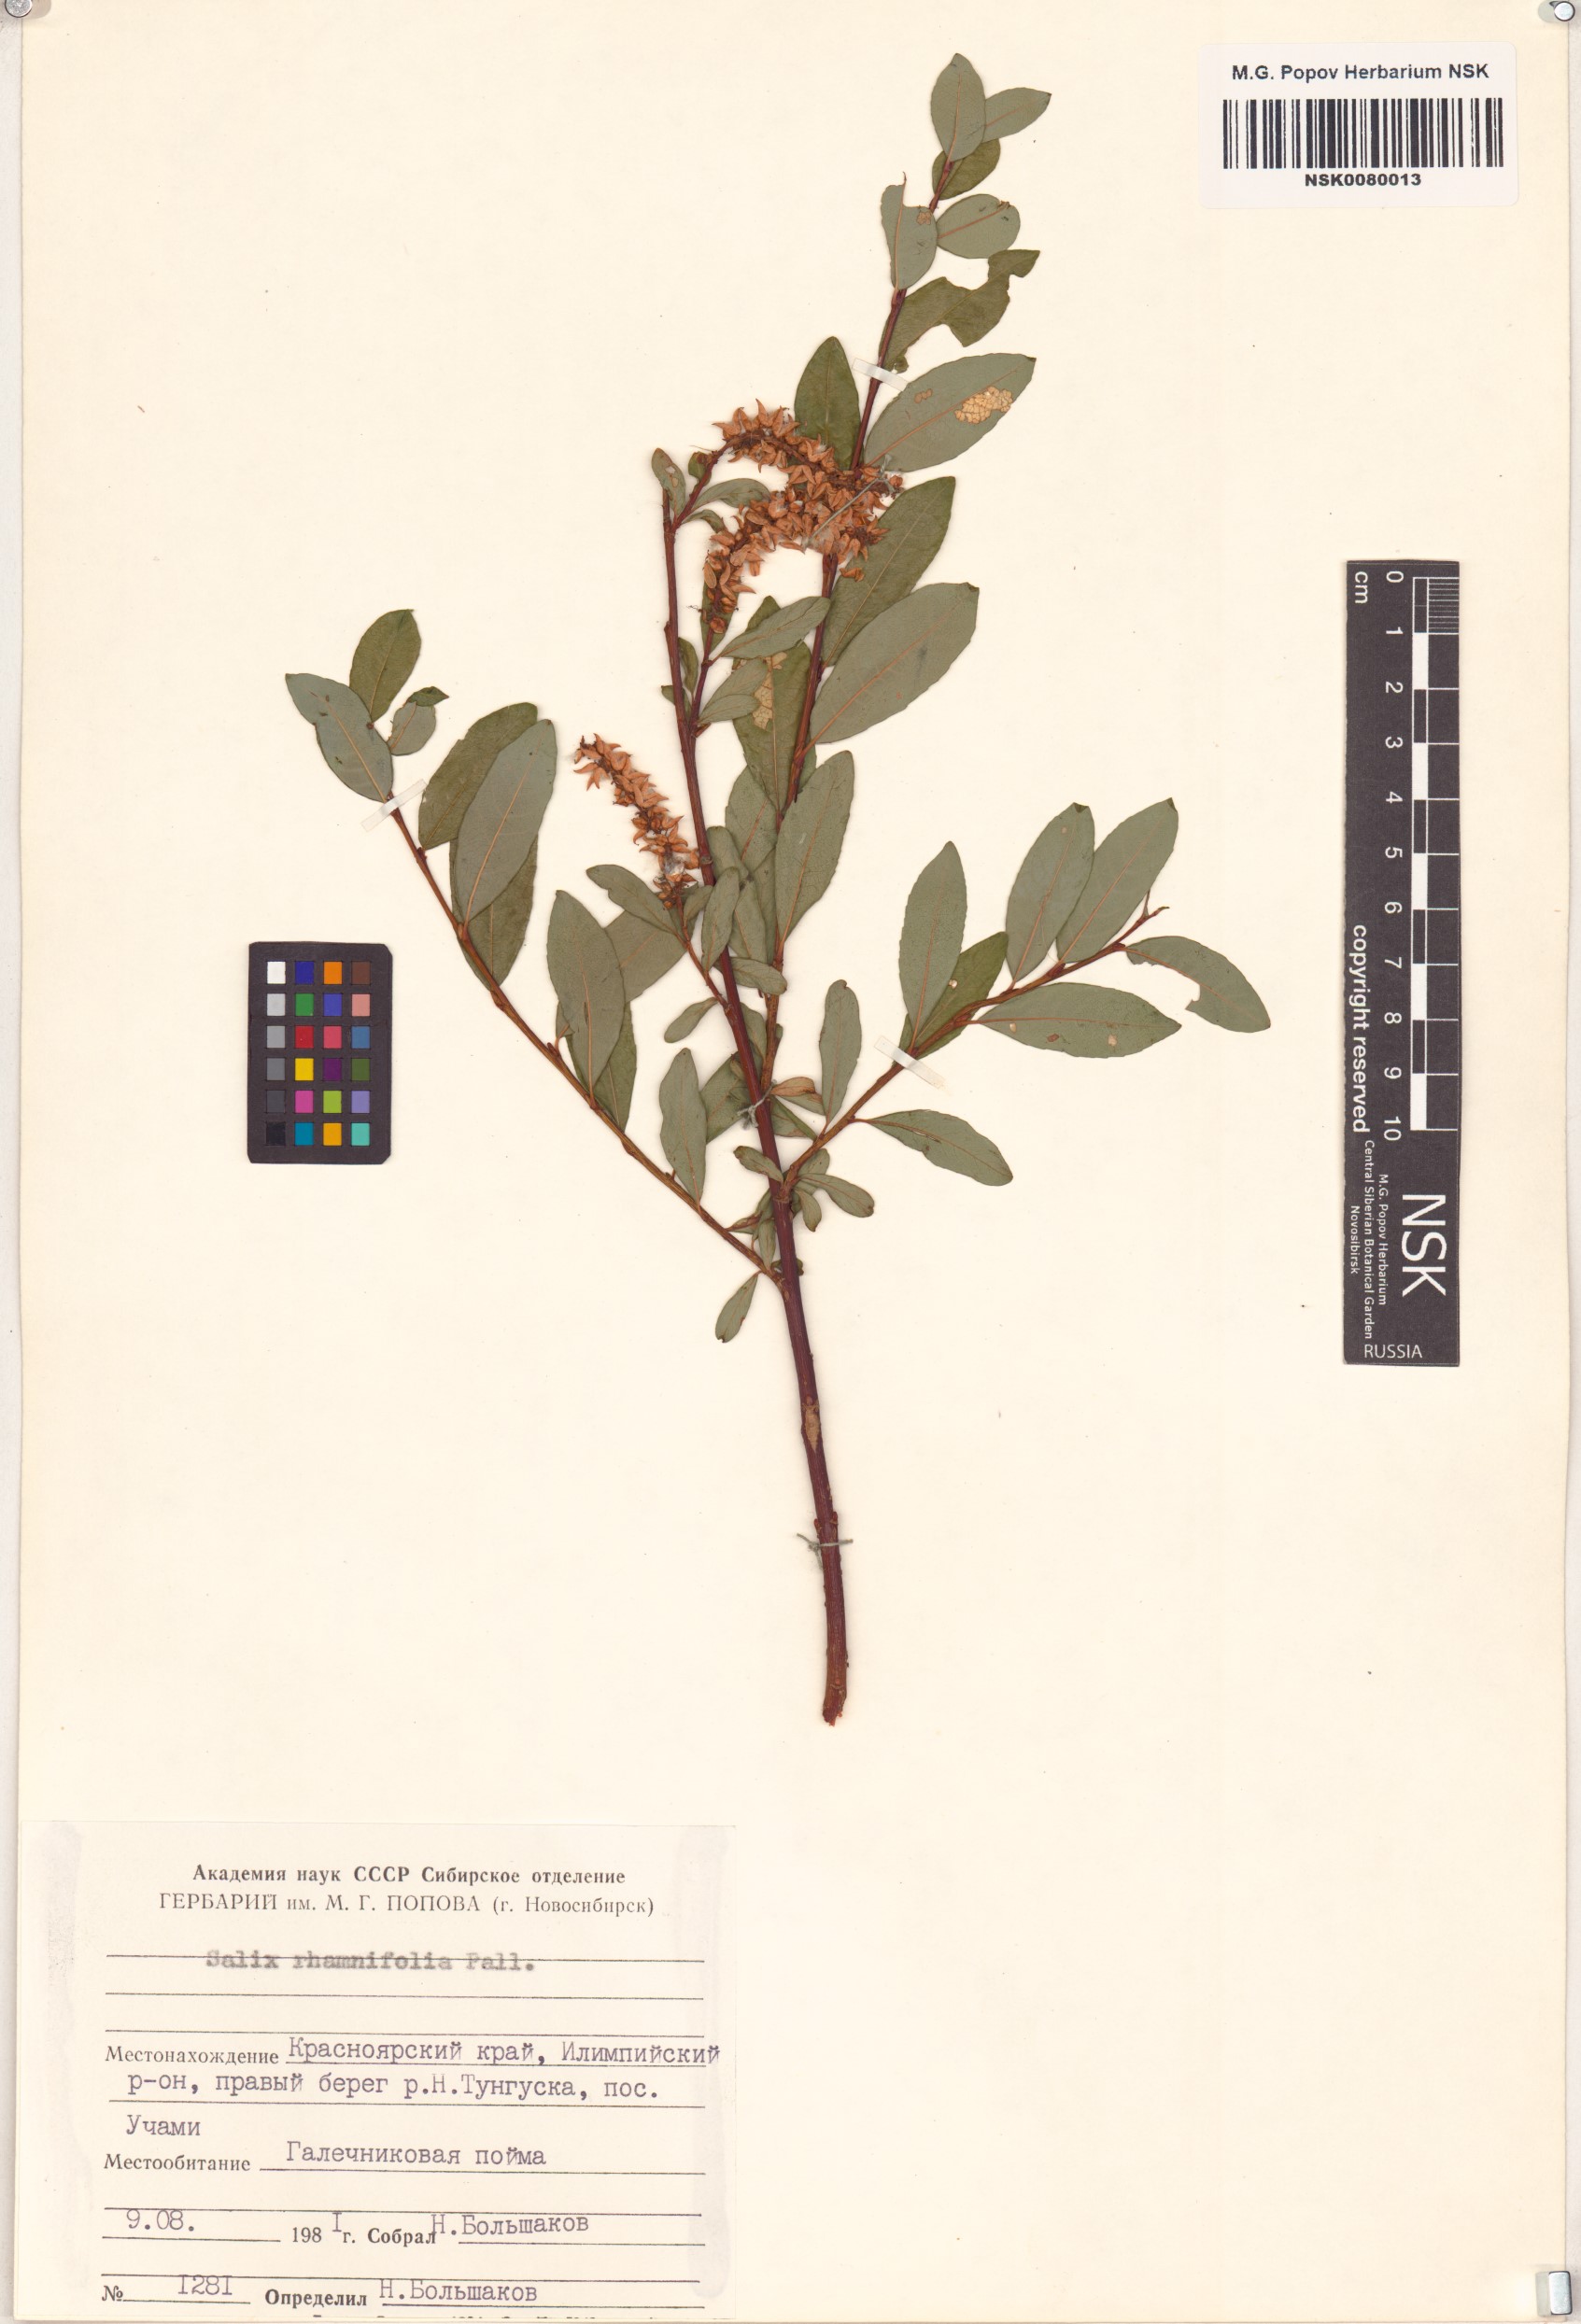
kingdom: Plantae
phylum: Tracheophyta
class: Magnoliopsida
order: Malpighiales
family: Salicaceae
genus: Salix
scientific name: Salix rhamnifolia
